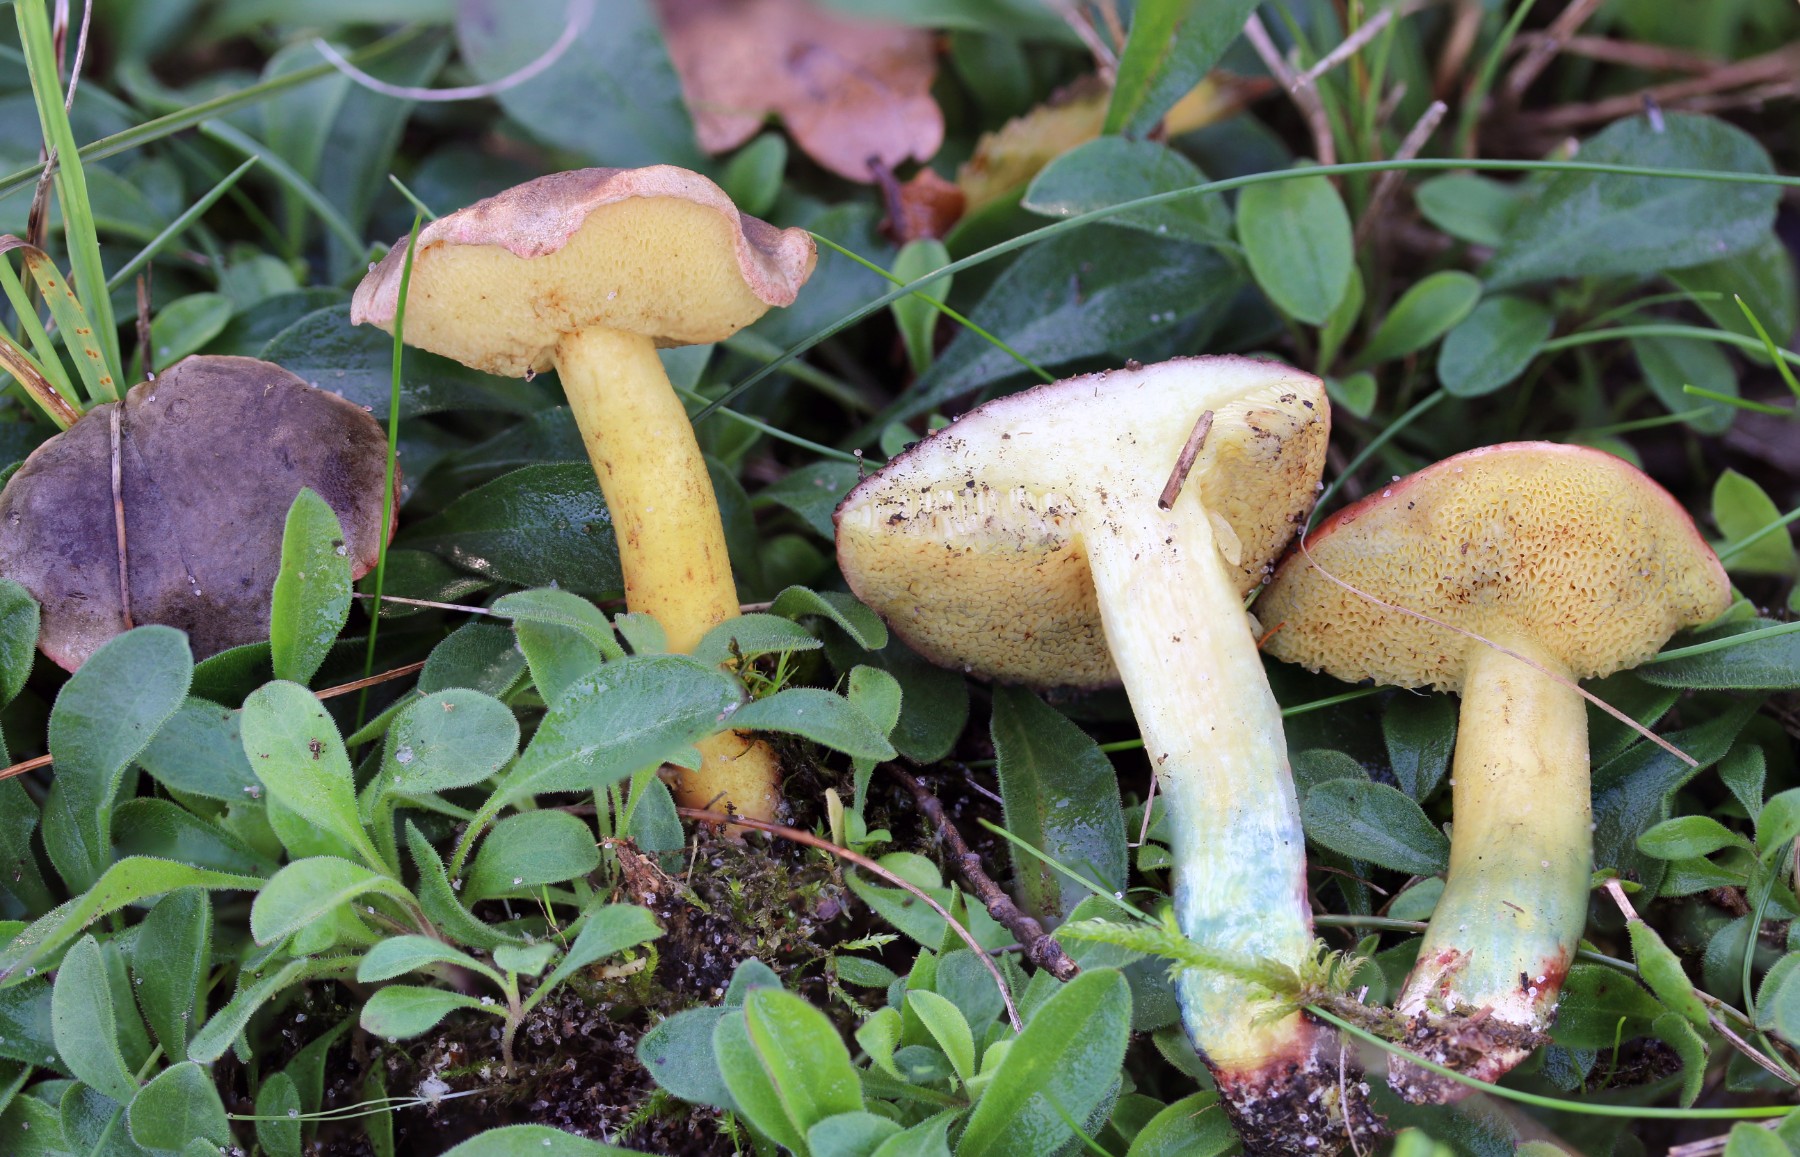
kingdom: Fungi
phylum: Basidiomycota
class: Agaricomycetes
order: Boletales
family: Boletaceae
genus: Xerocomellus
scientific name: Xerocomellus cisalpinus
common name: finsprukken rørhat
